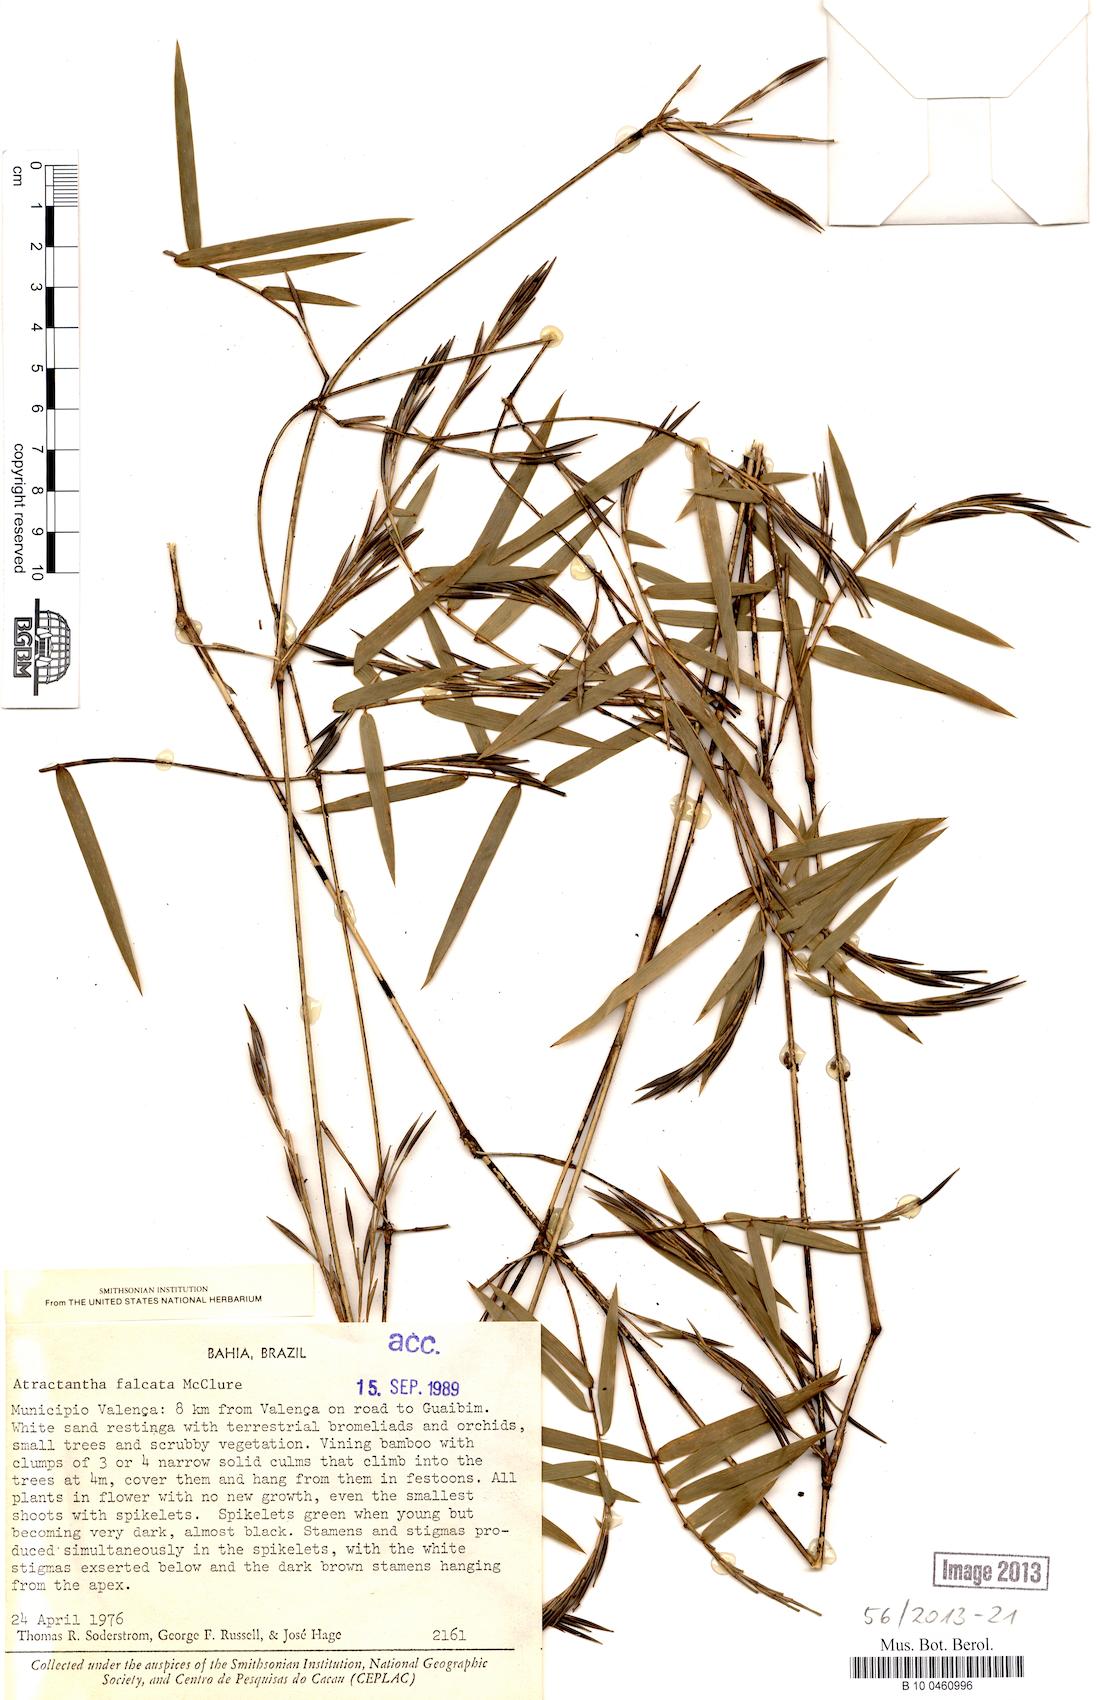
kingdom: Plantae
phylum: Tracheophyta
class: Liliopsida
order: Poales
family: Poaceae
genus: Atractantha
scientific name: Atractantha falcata
